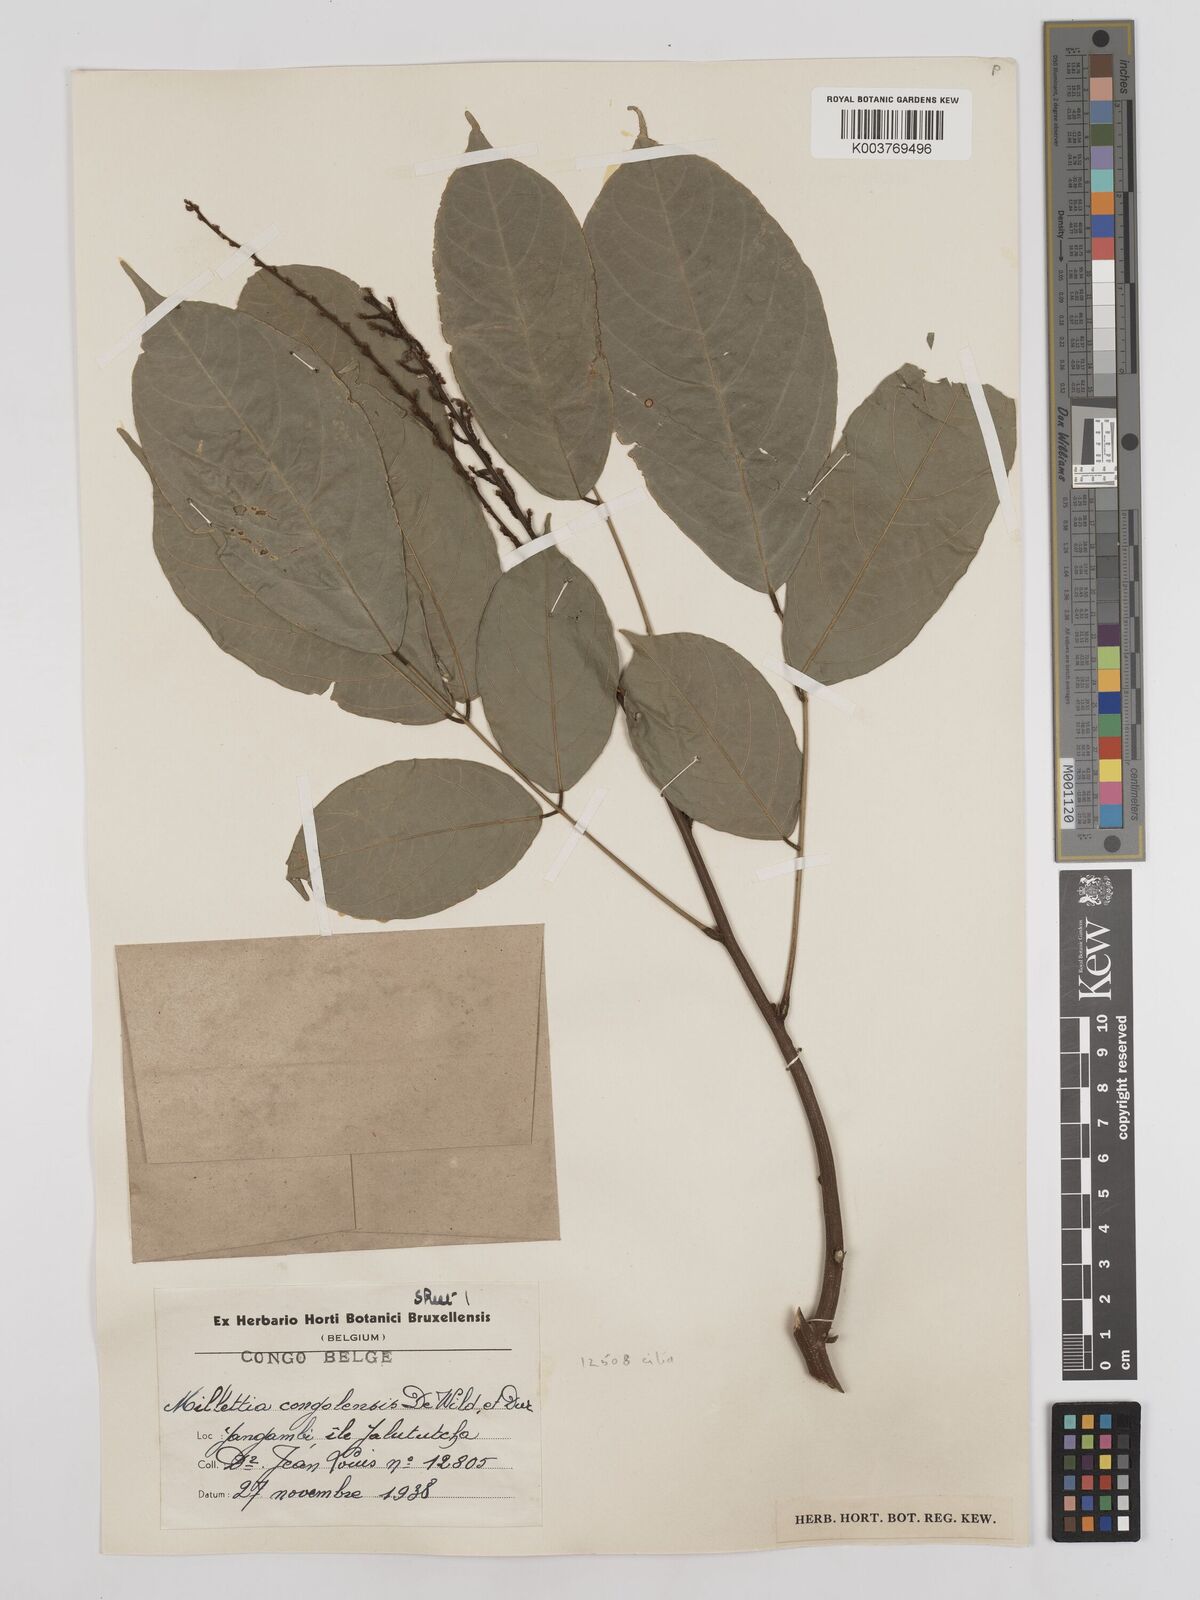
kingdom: Plantae
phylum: Tracheophyta
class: Magnoliopsida
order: Fabales
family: Fabaceae
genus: Millettia
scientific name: Millettia macroura
